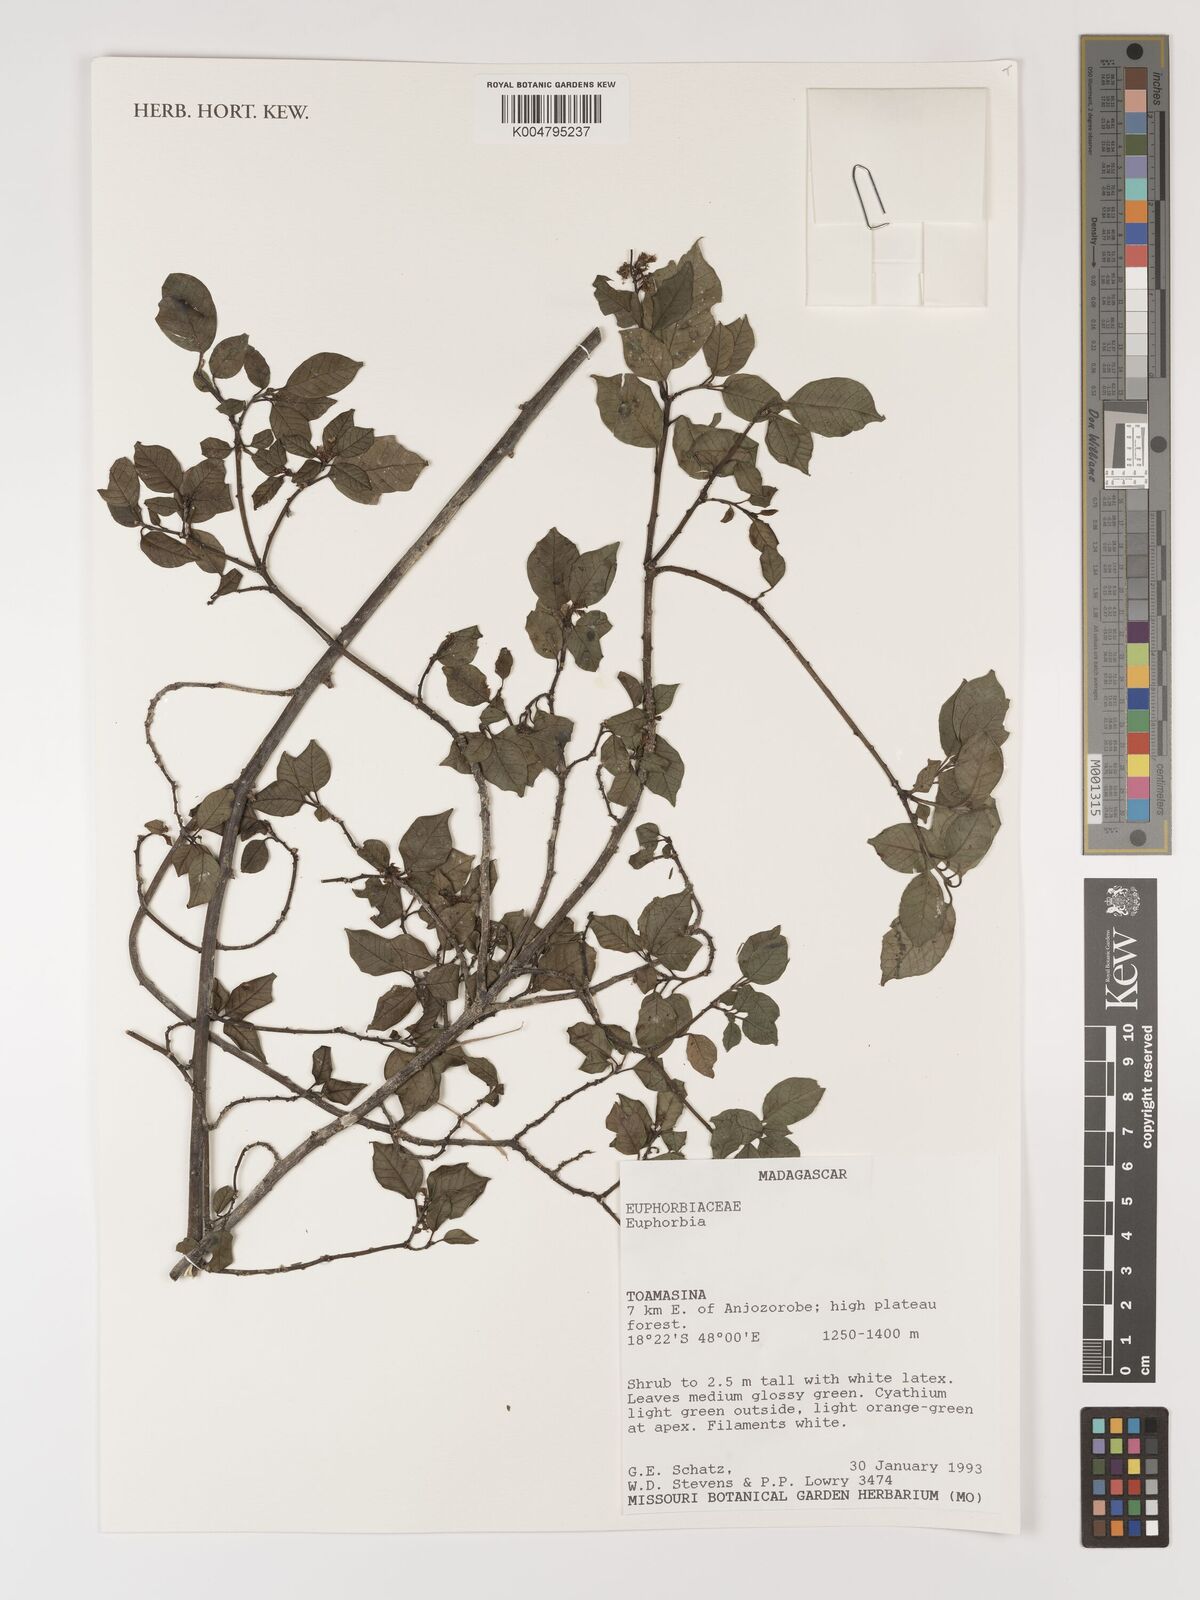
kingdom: Plantae
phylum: Tracheophyta
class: Magnoliopsida
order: Malpighiales
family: Euphorbiaceae
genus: Euphorbia
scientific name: Euphorbia
